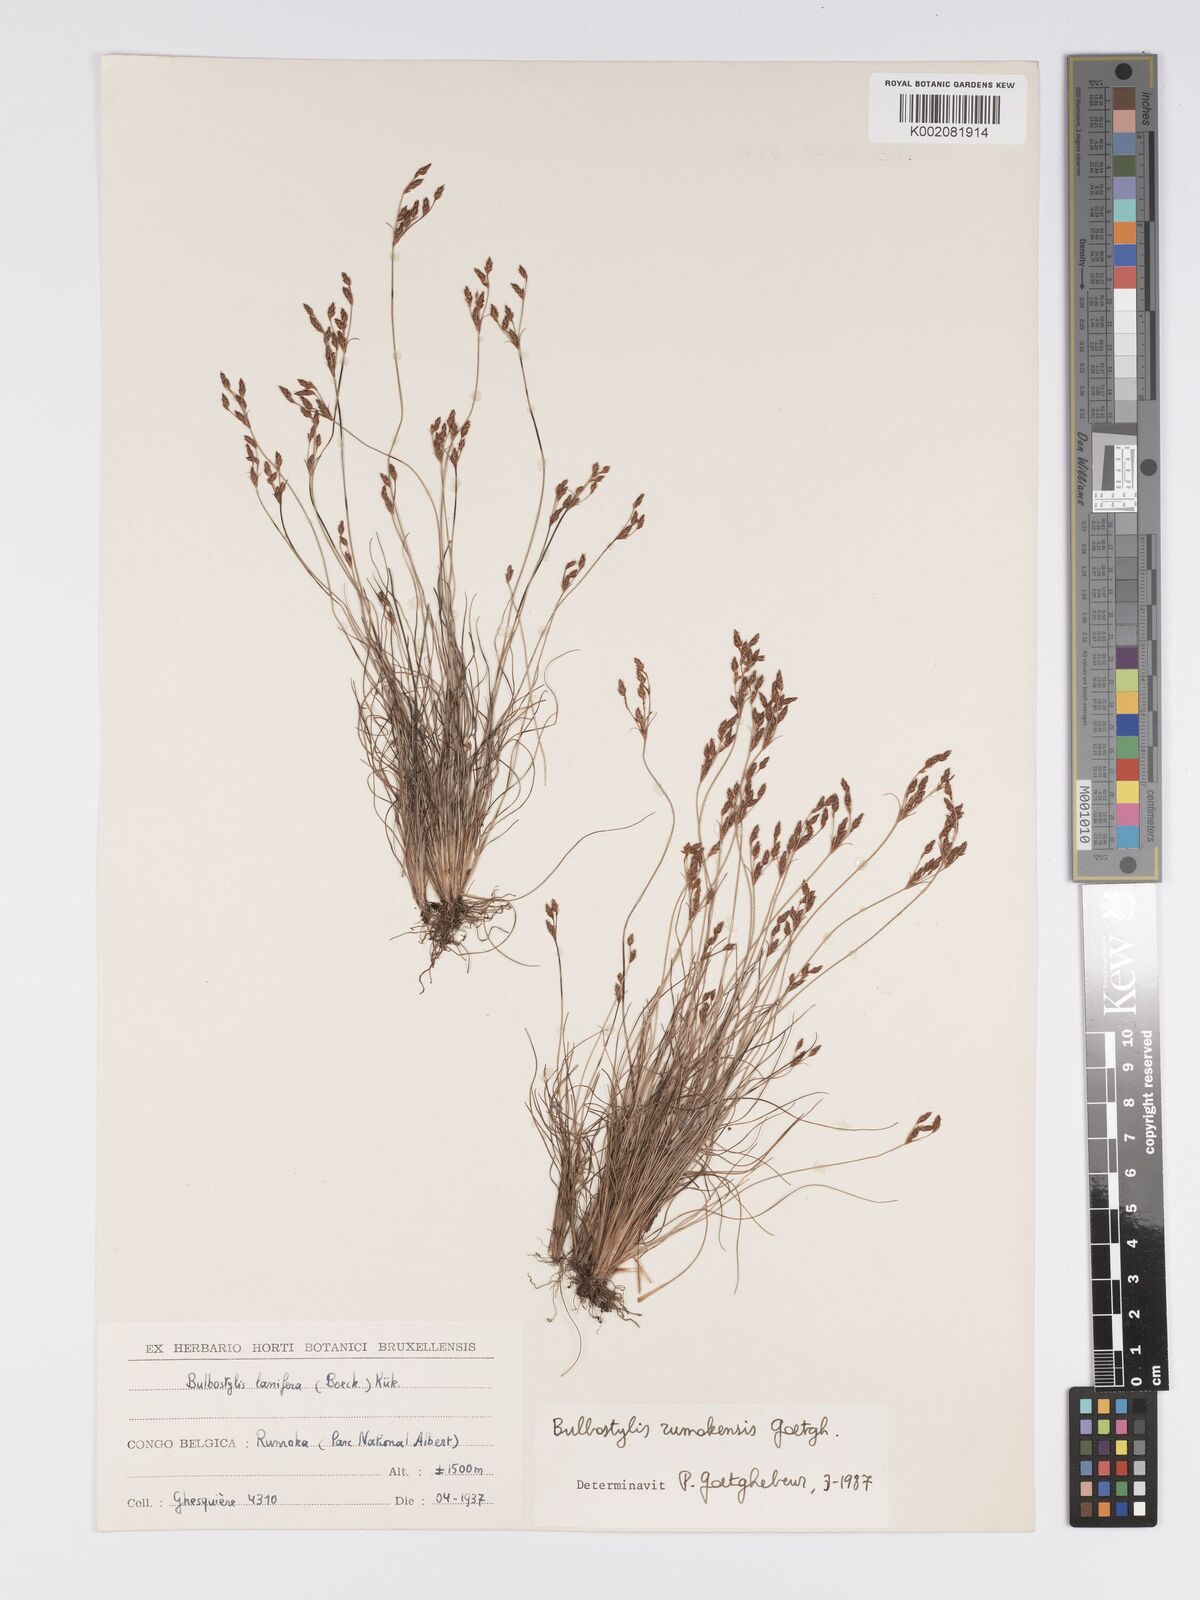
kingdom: Plantae
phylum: Tracheophyta
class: Liliopsida
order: Poales
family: Cyperaceae
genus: Bulbostylis
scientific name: Bulbostylis rumokensis
